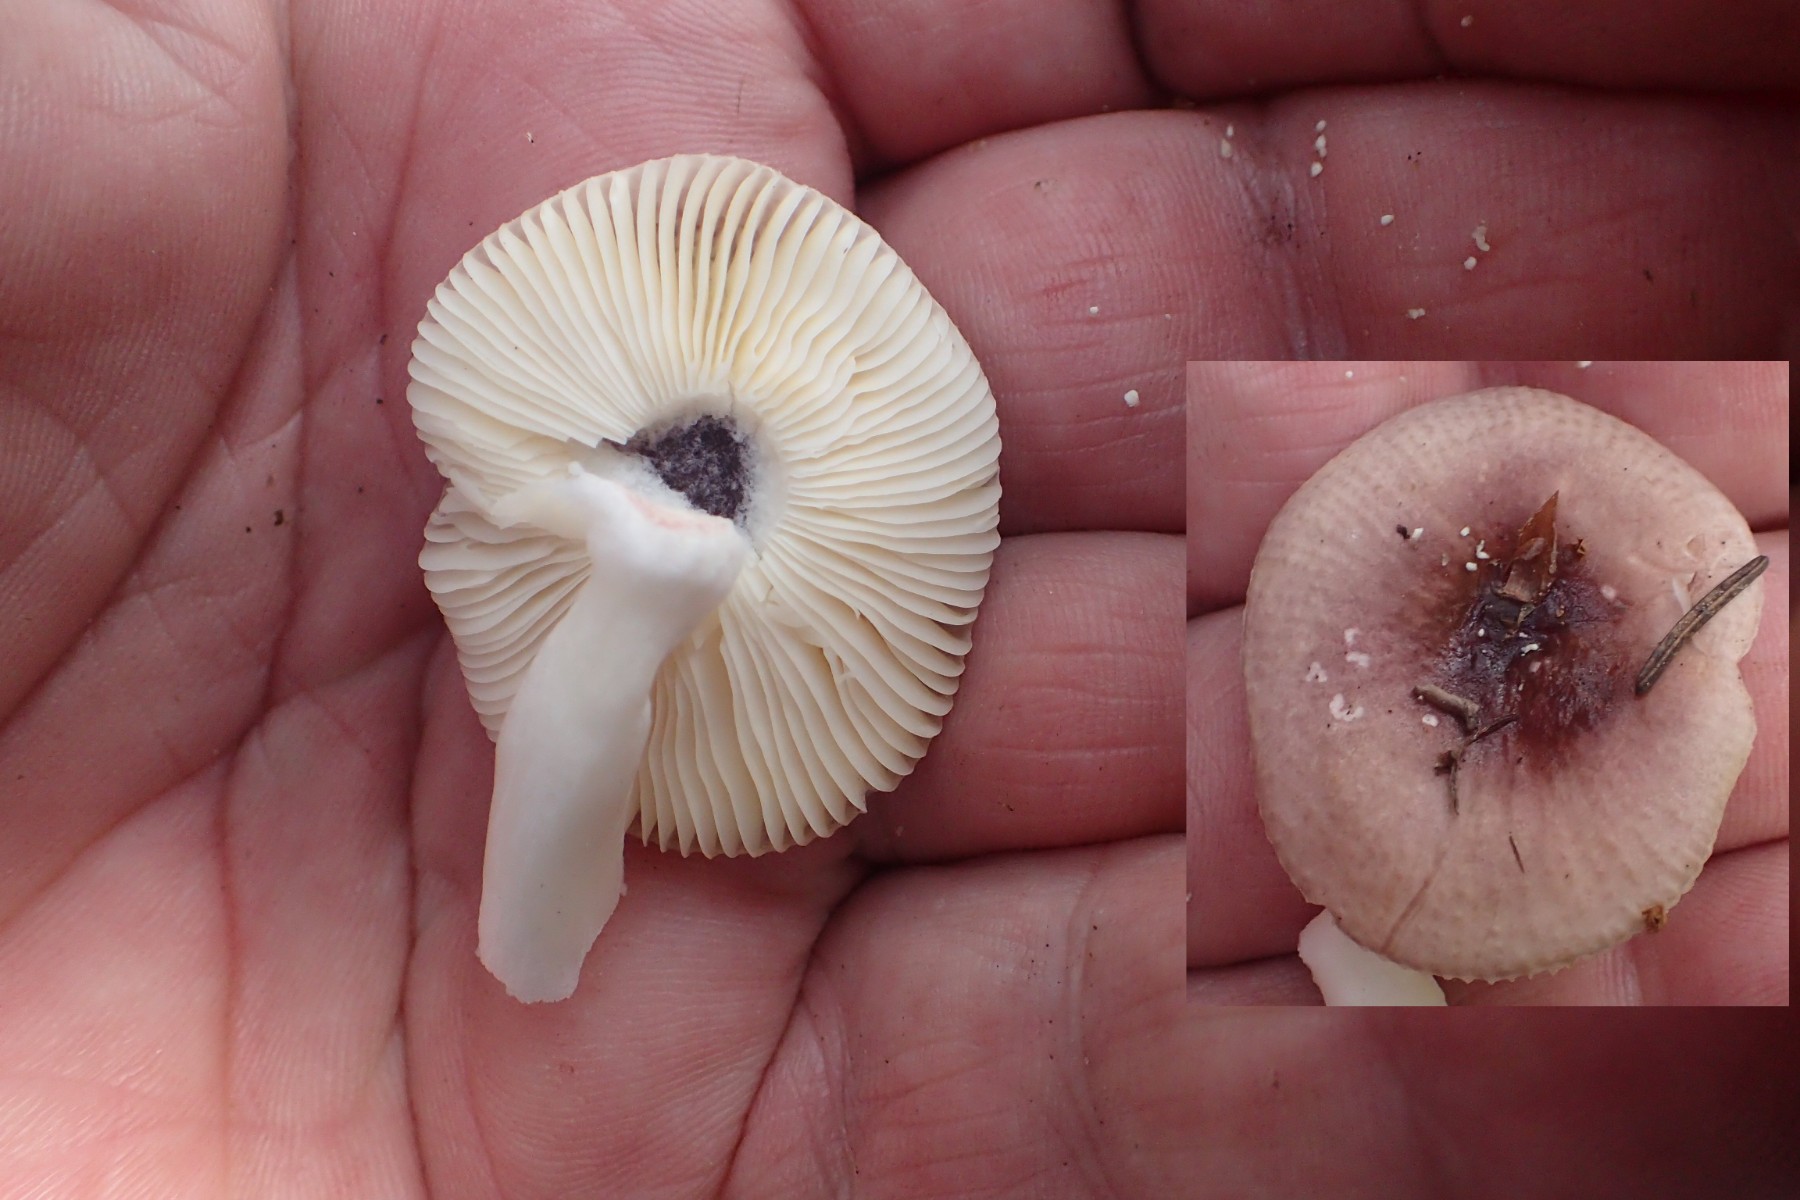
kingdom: Fungi
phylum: Basidiomycota
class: Agaricomycetes
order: Russulales
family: Russulaceae
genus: Russula
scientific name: Russula nauseosa
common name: spinkel skørhat
